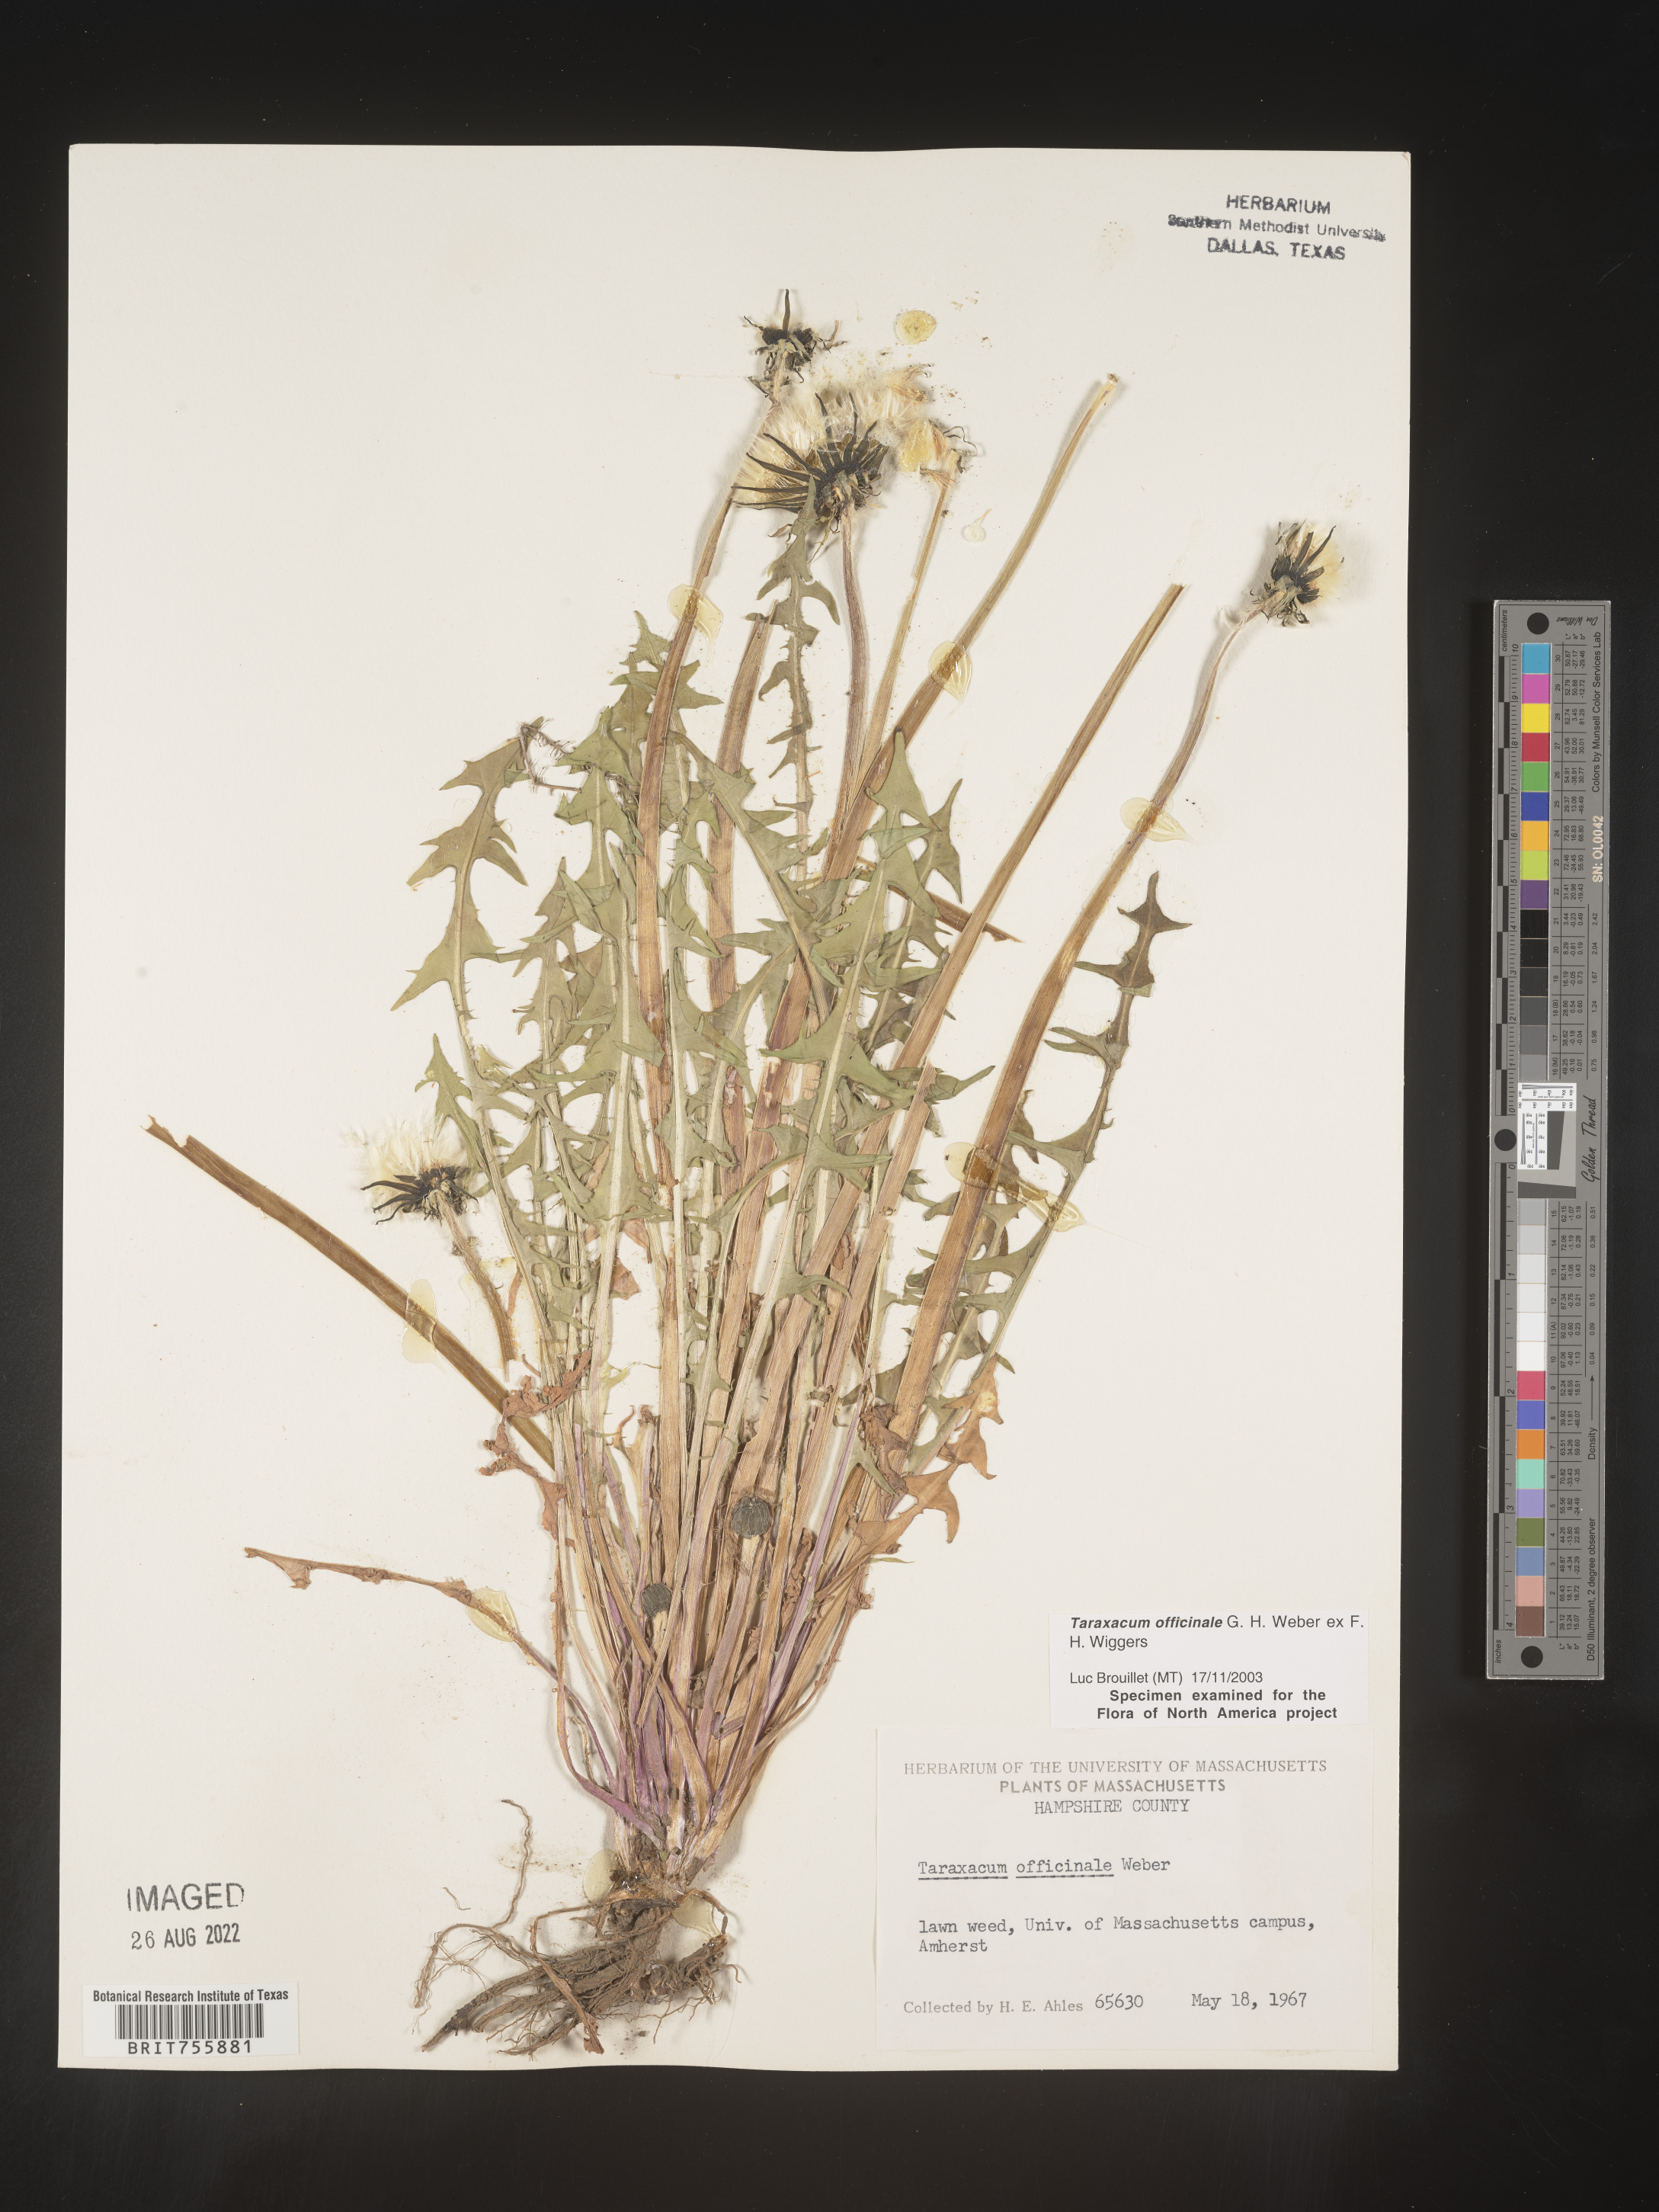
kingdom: Plantae
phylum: Tracheophyta
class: Magnoliopsida
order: Asterales
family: Asteraceae
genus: Taraxacum
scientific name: Taraxacum officinale
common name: Common dandelion
